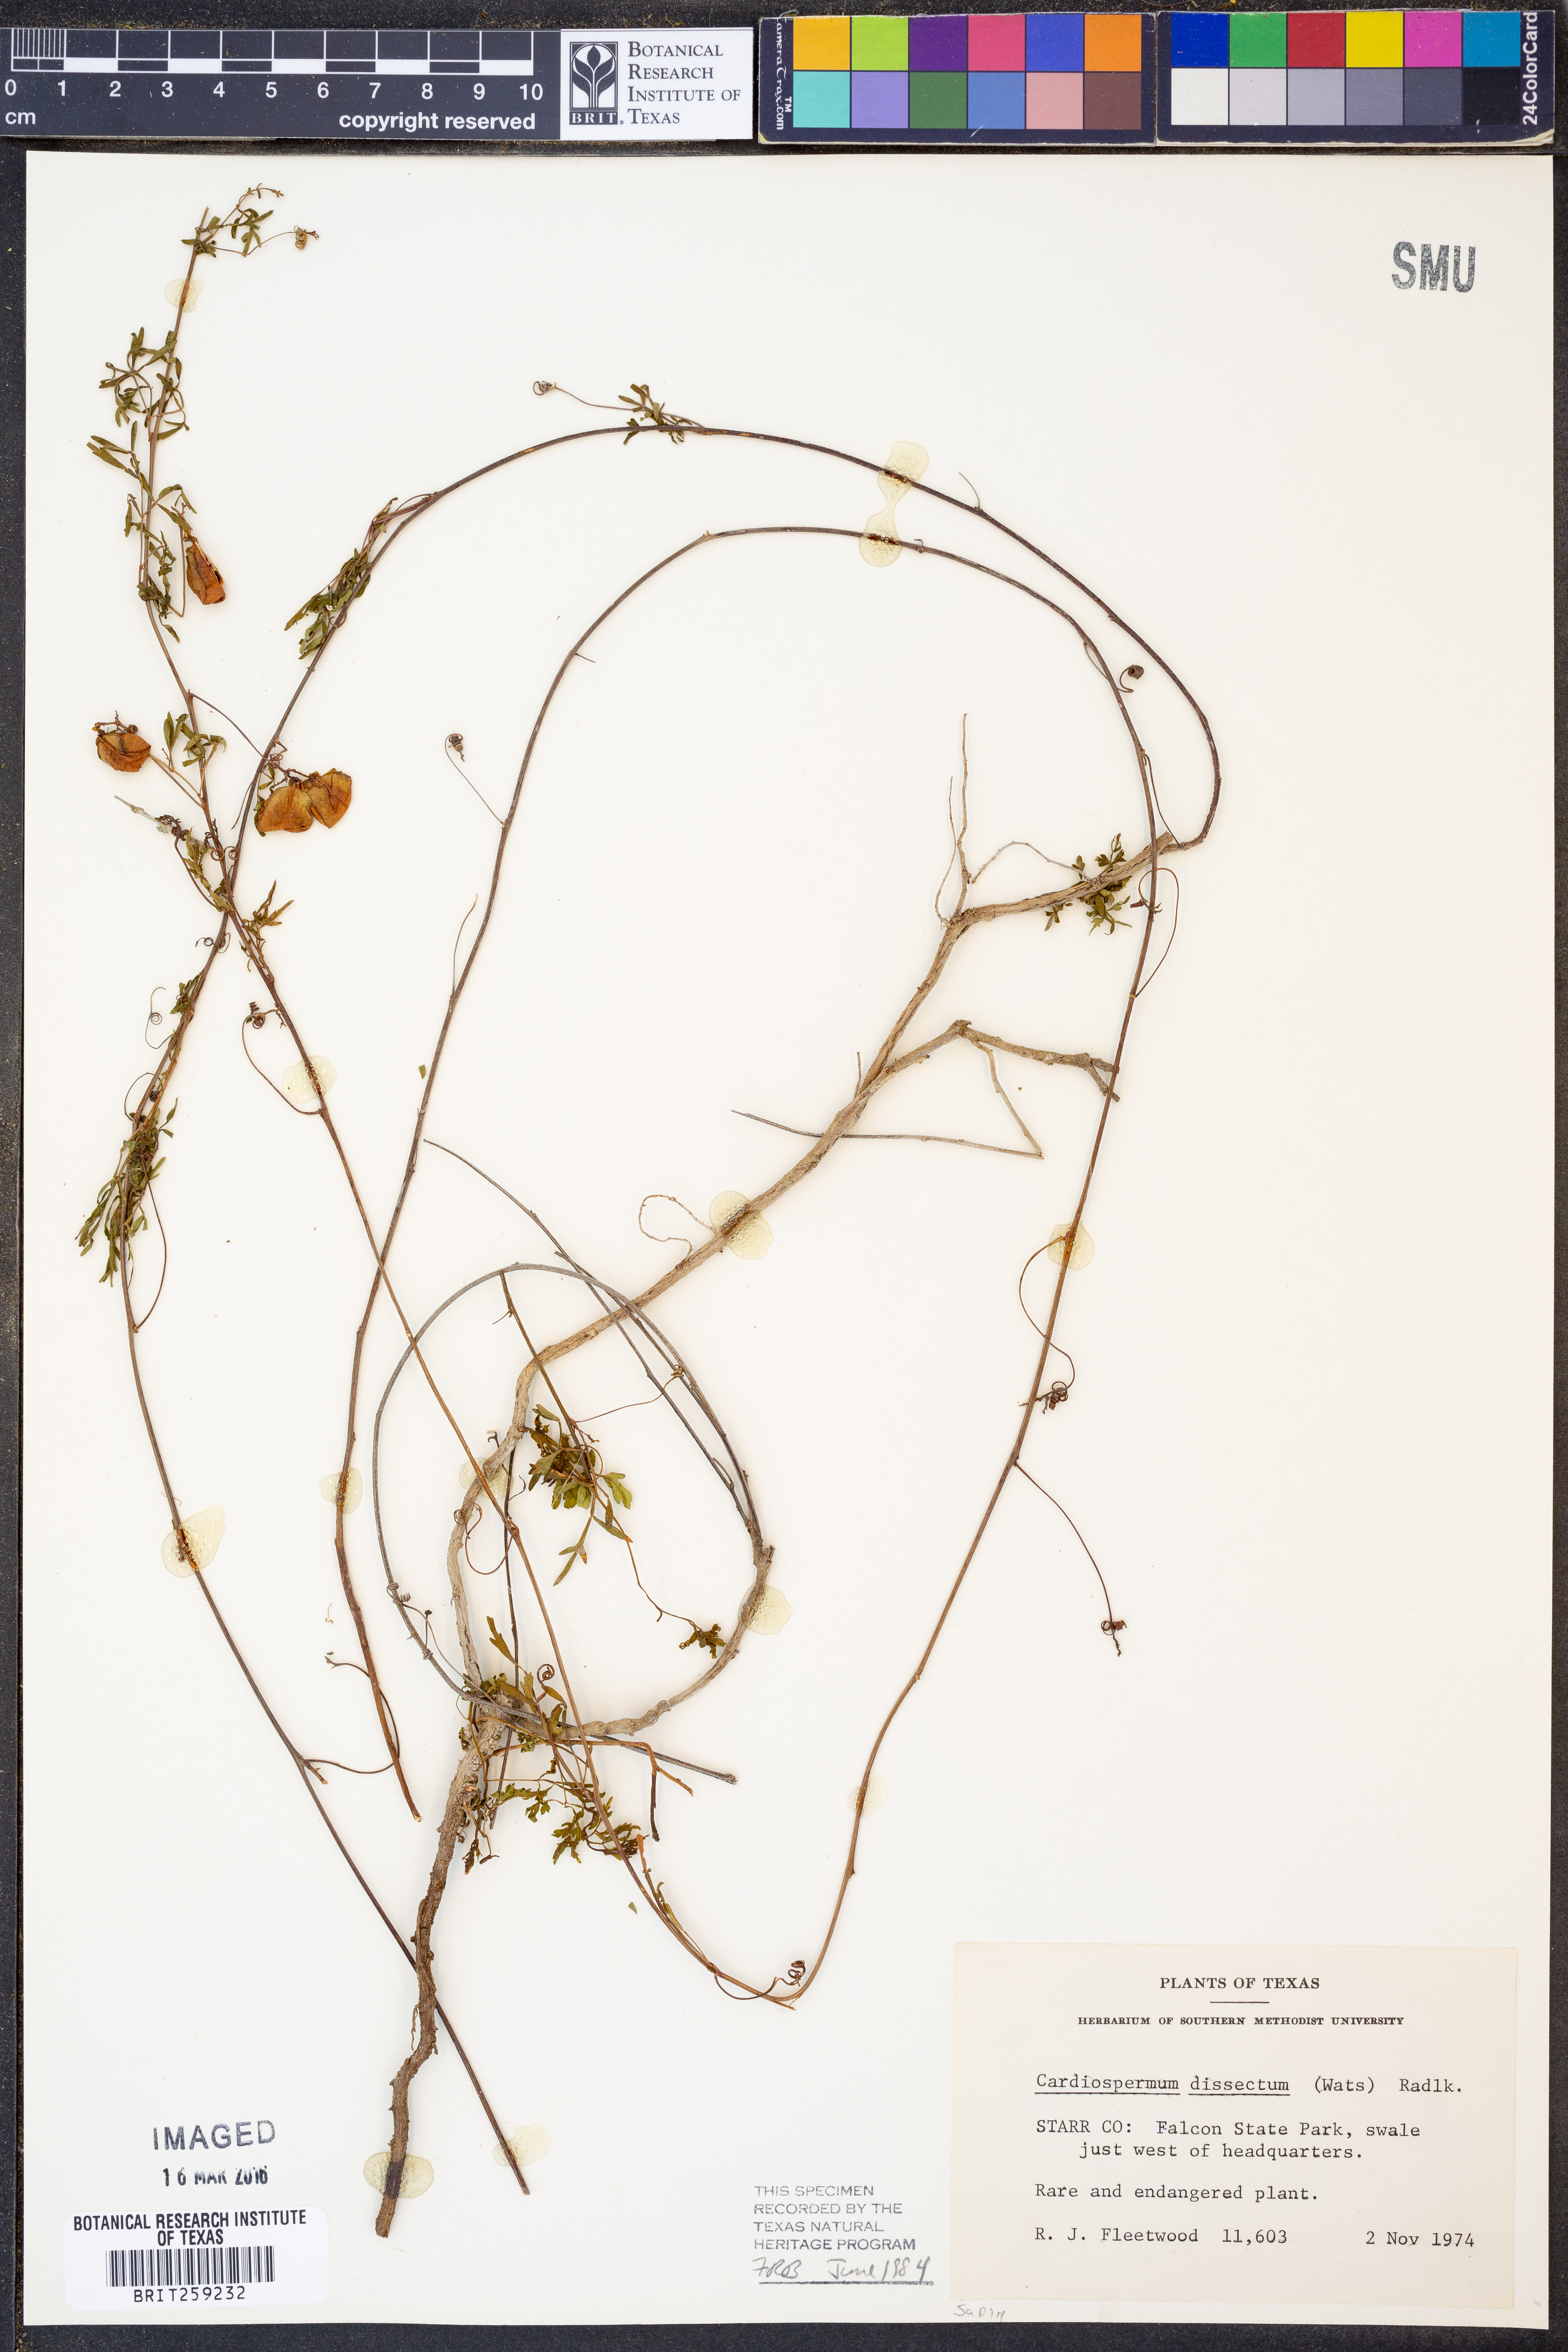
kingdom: Plantae
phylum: Tracheophyta
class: Magnoliopsida
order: Sapindales
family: Sapindaceae
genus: Serjania
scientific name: Serjania dissecta
